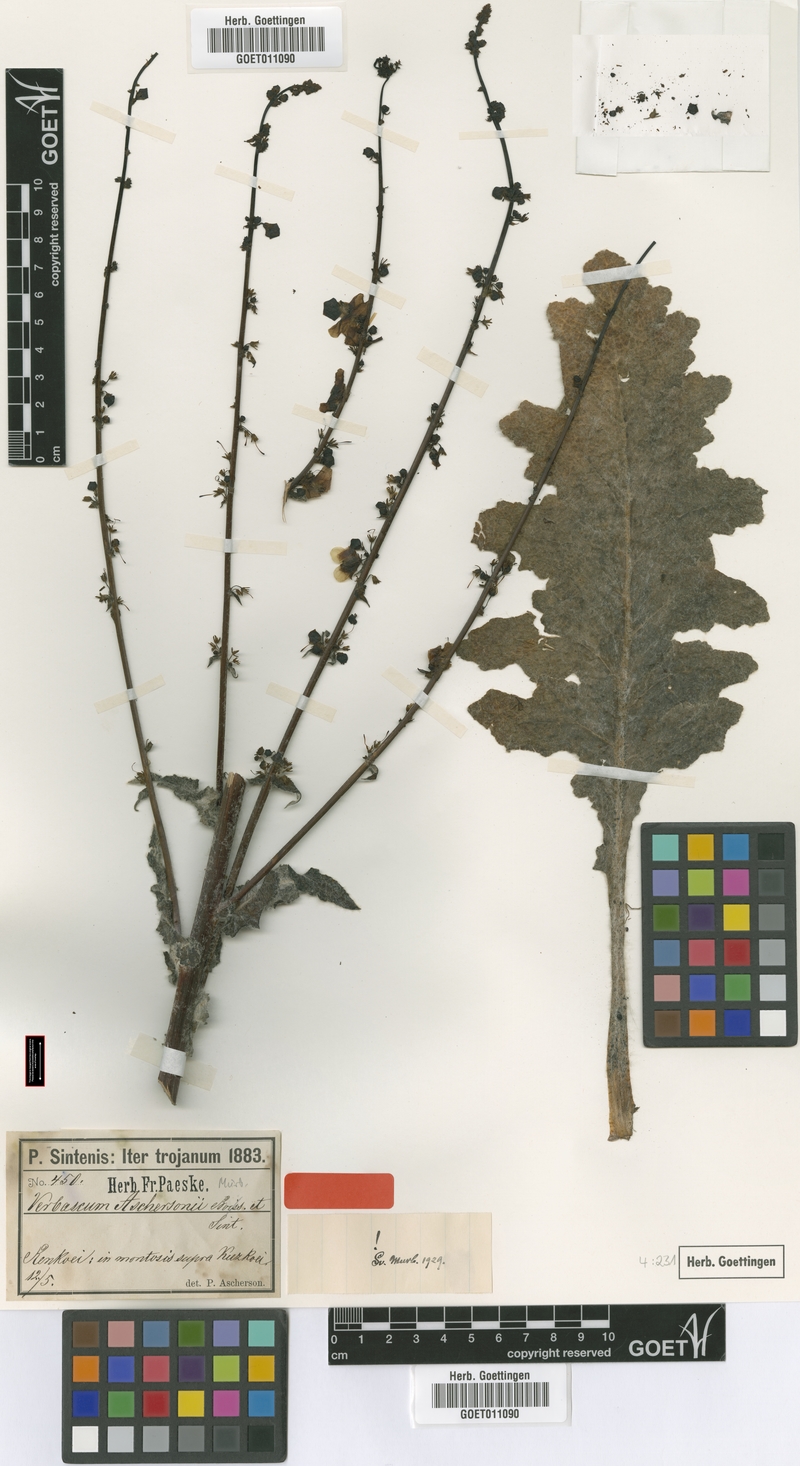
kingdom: Plantae
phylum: Tracheophyta
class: Magnoliopsida
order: Lamiales
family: Scrophulariaceae
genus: Verbascum
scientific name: Verbascum aschersonii
